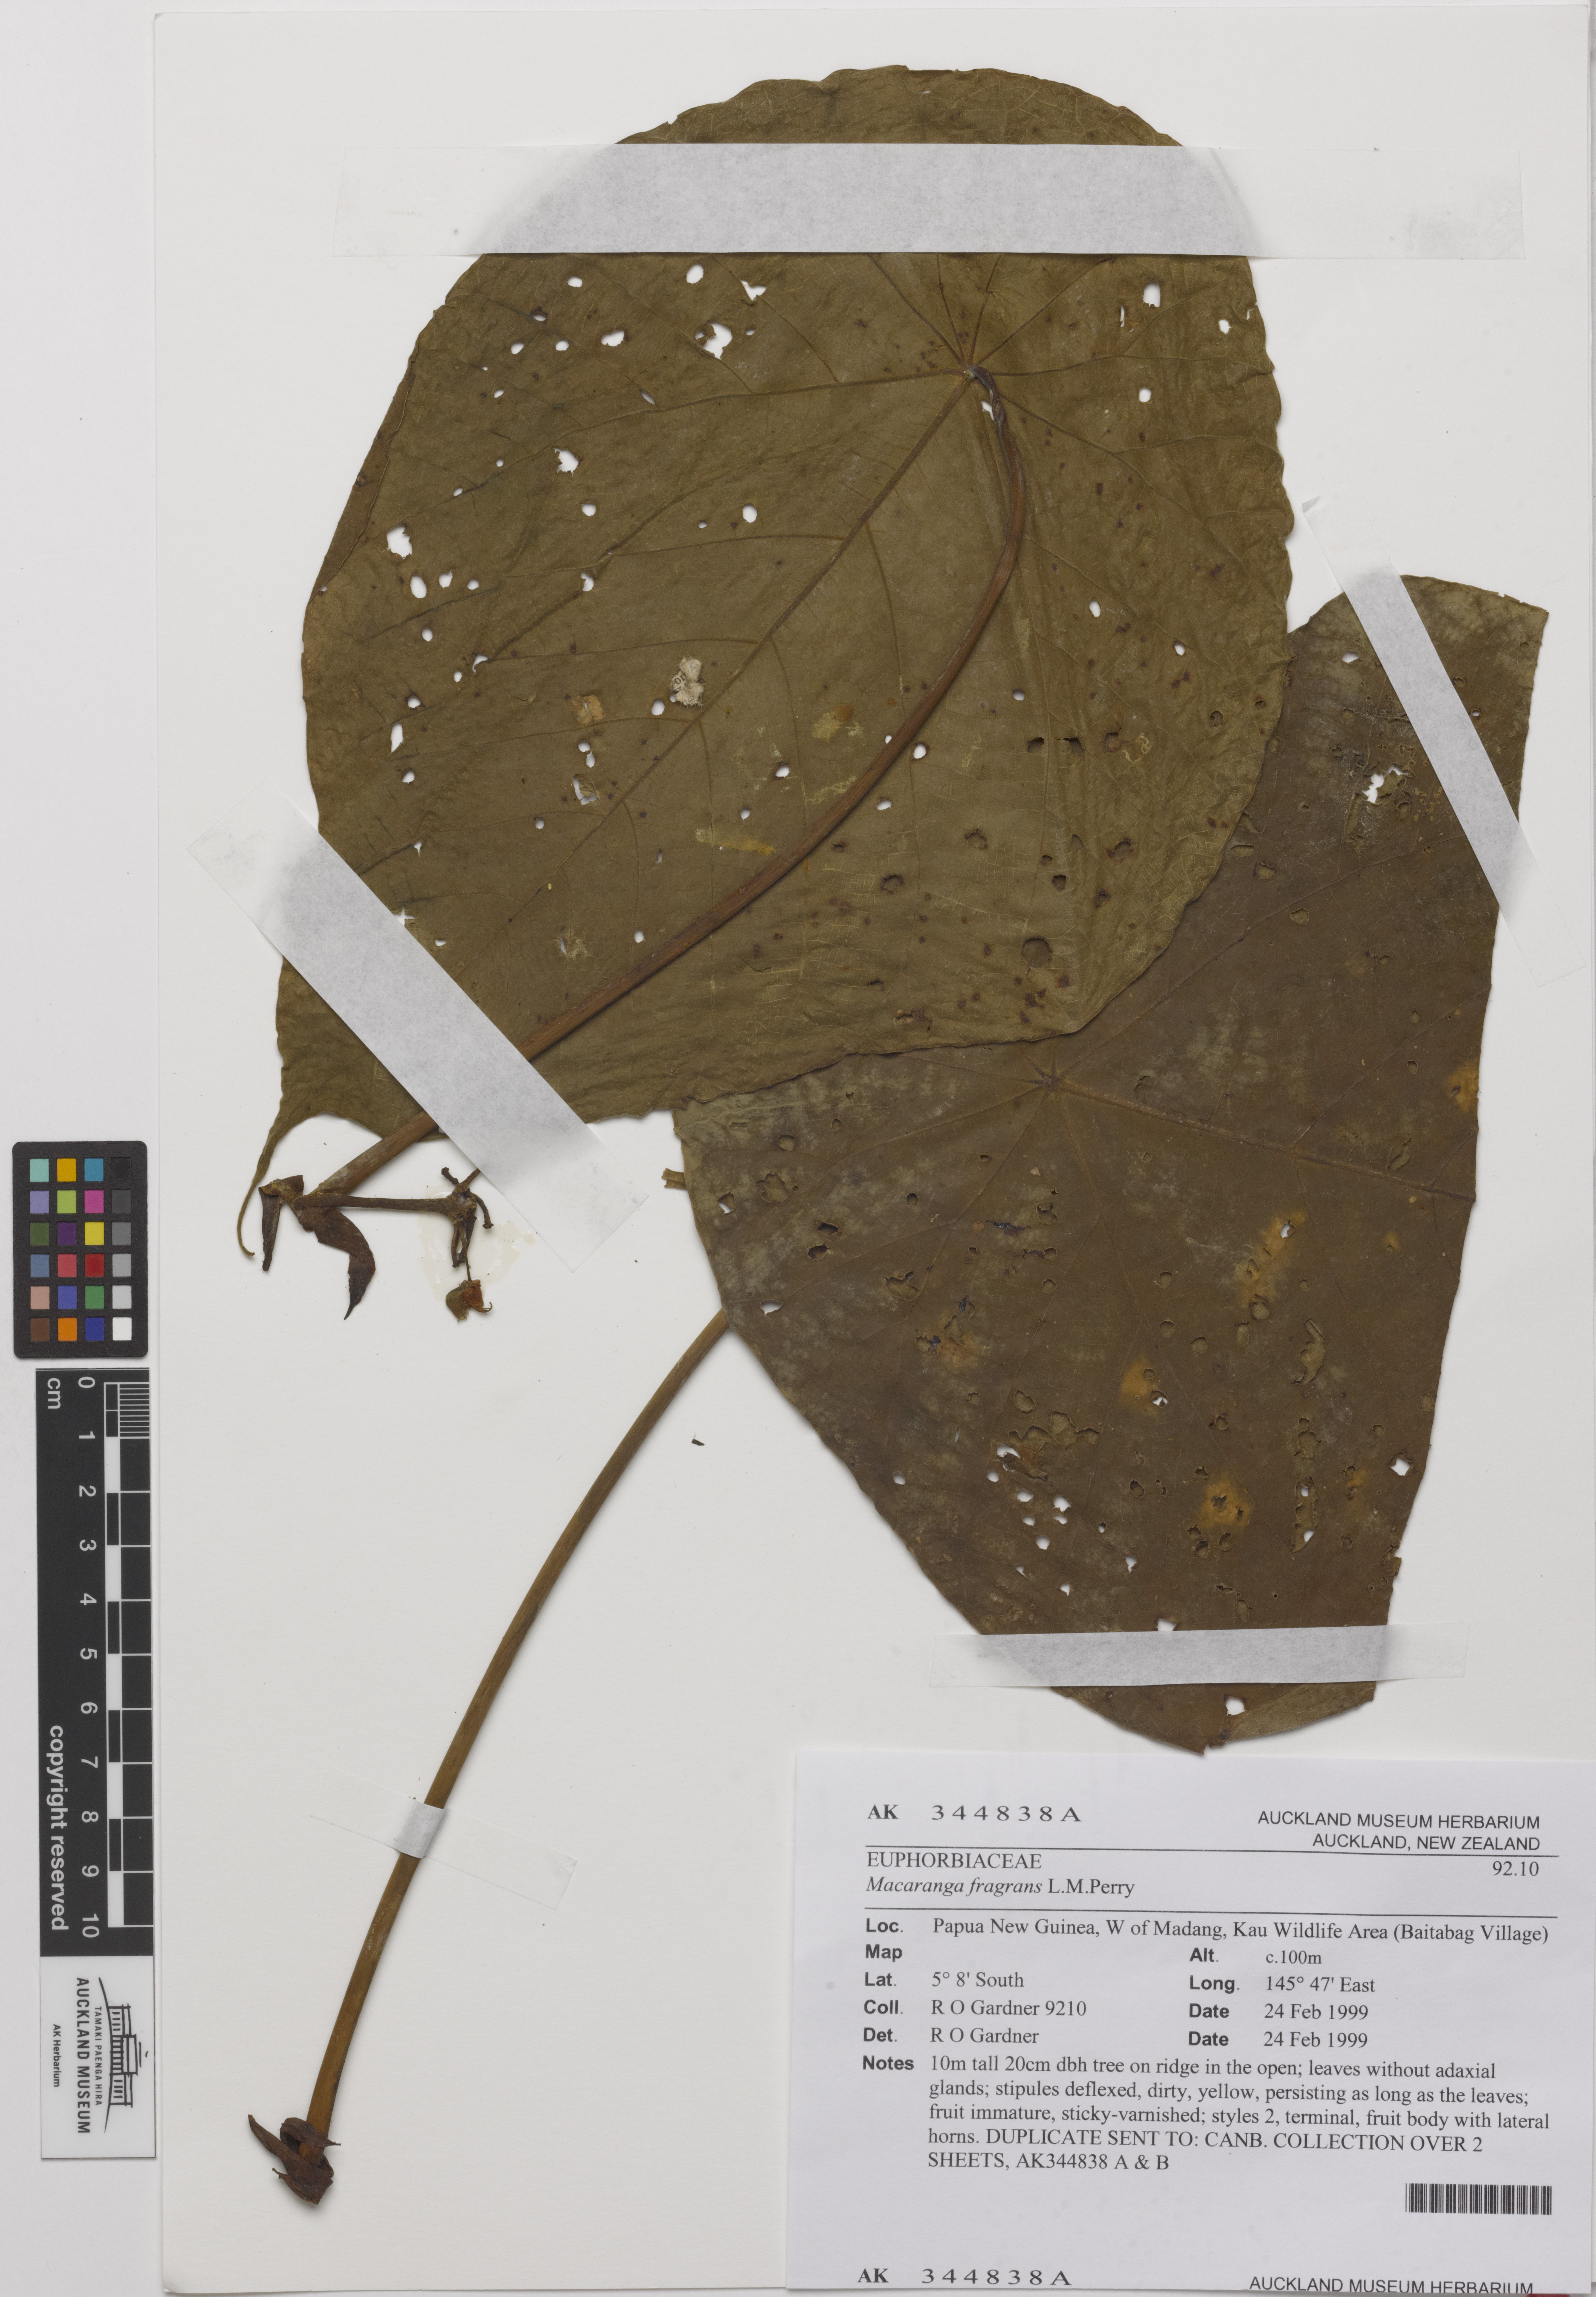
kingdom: Plantae
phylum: Tracheophyta
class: Magnoliopsida
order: Malpighiales
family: Euphorbiaceae
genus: Macaranga
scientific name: Macaranga fragrans
